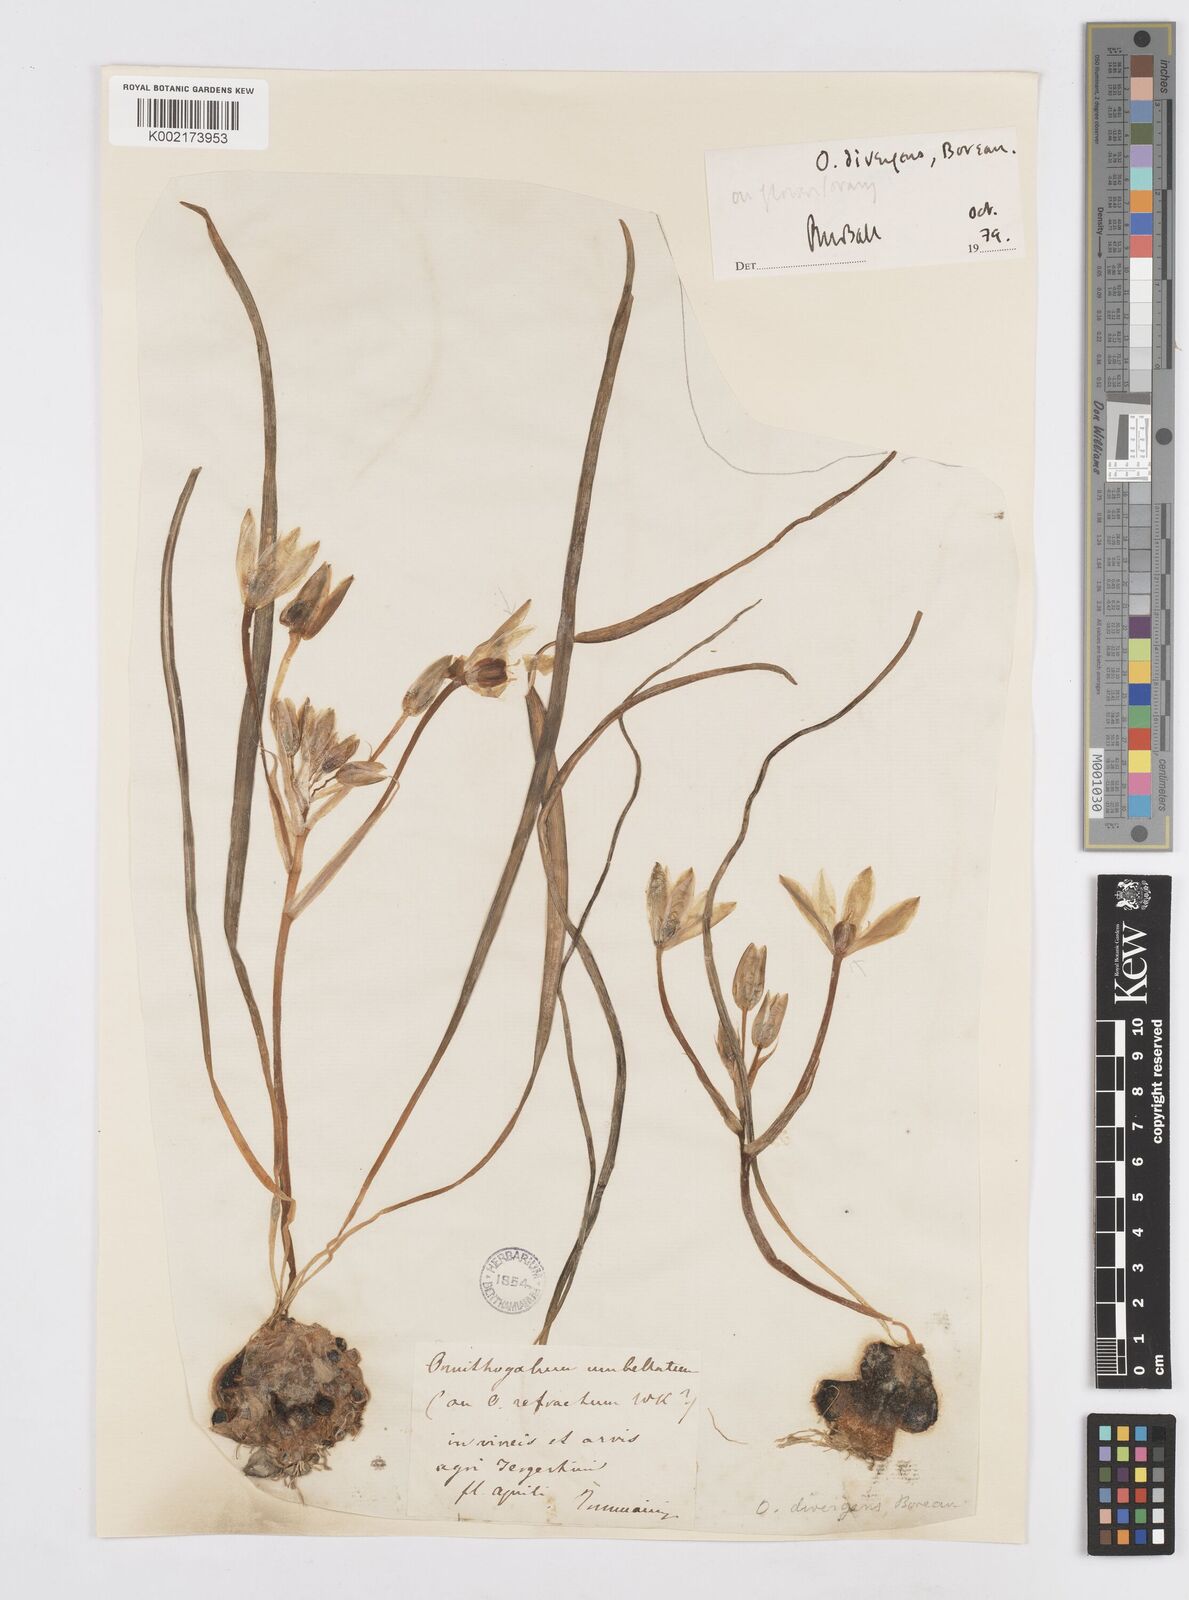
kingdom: Plantae
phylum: Tracheophyta
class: Liliopsida
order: Asparagales
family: Asparagaceae
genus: Ornithogalum
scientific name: Ornithogalum divergens
